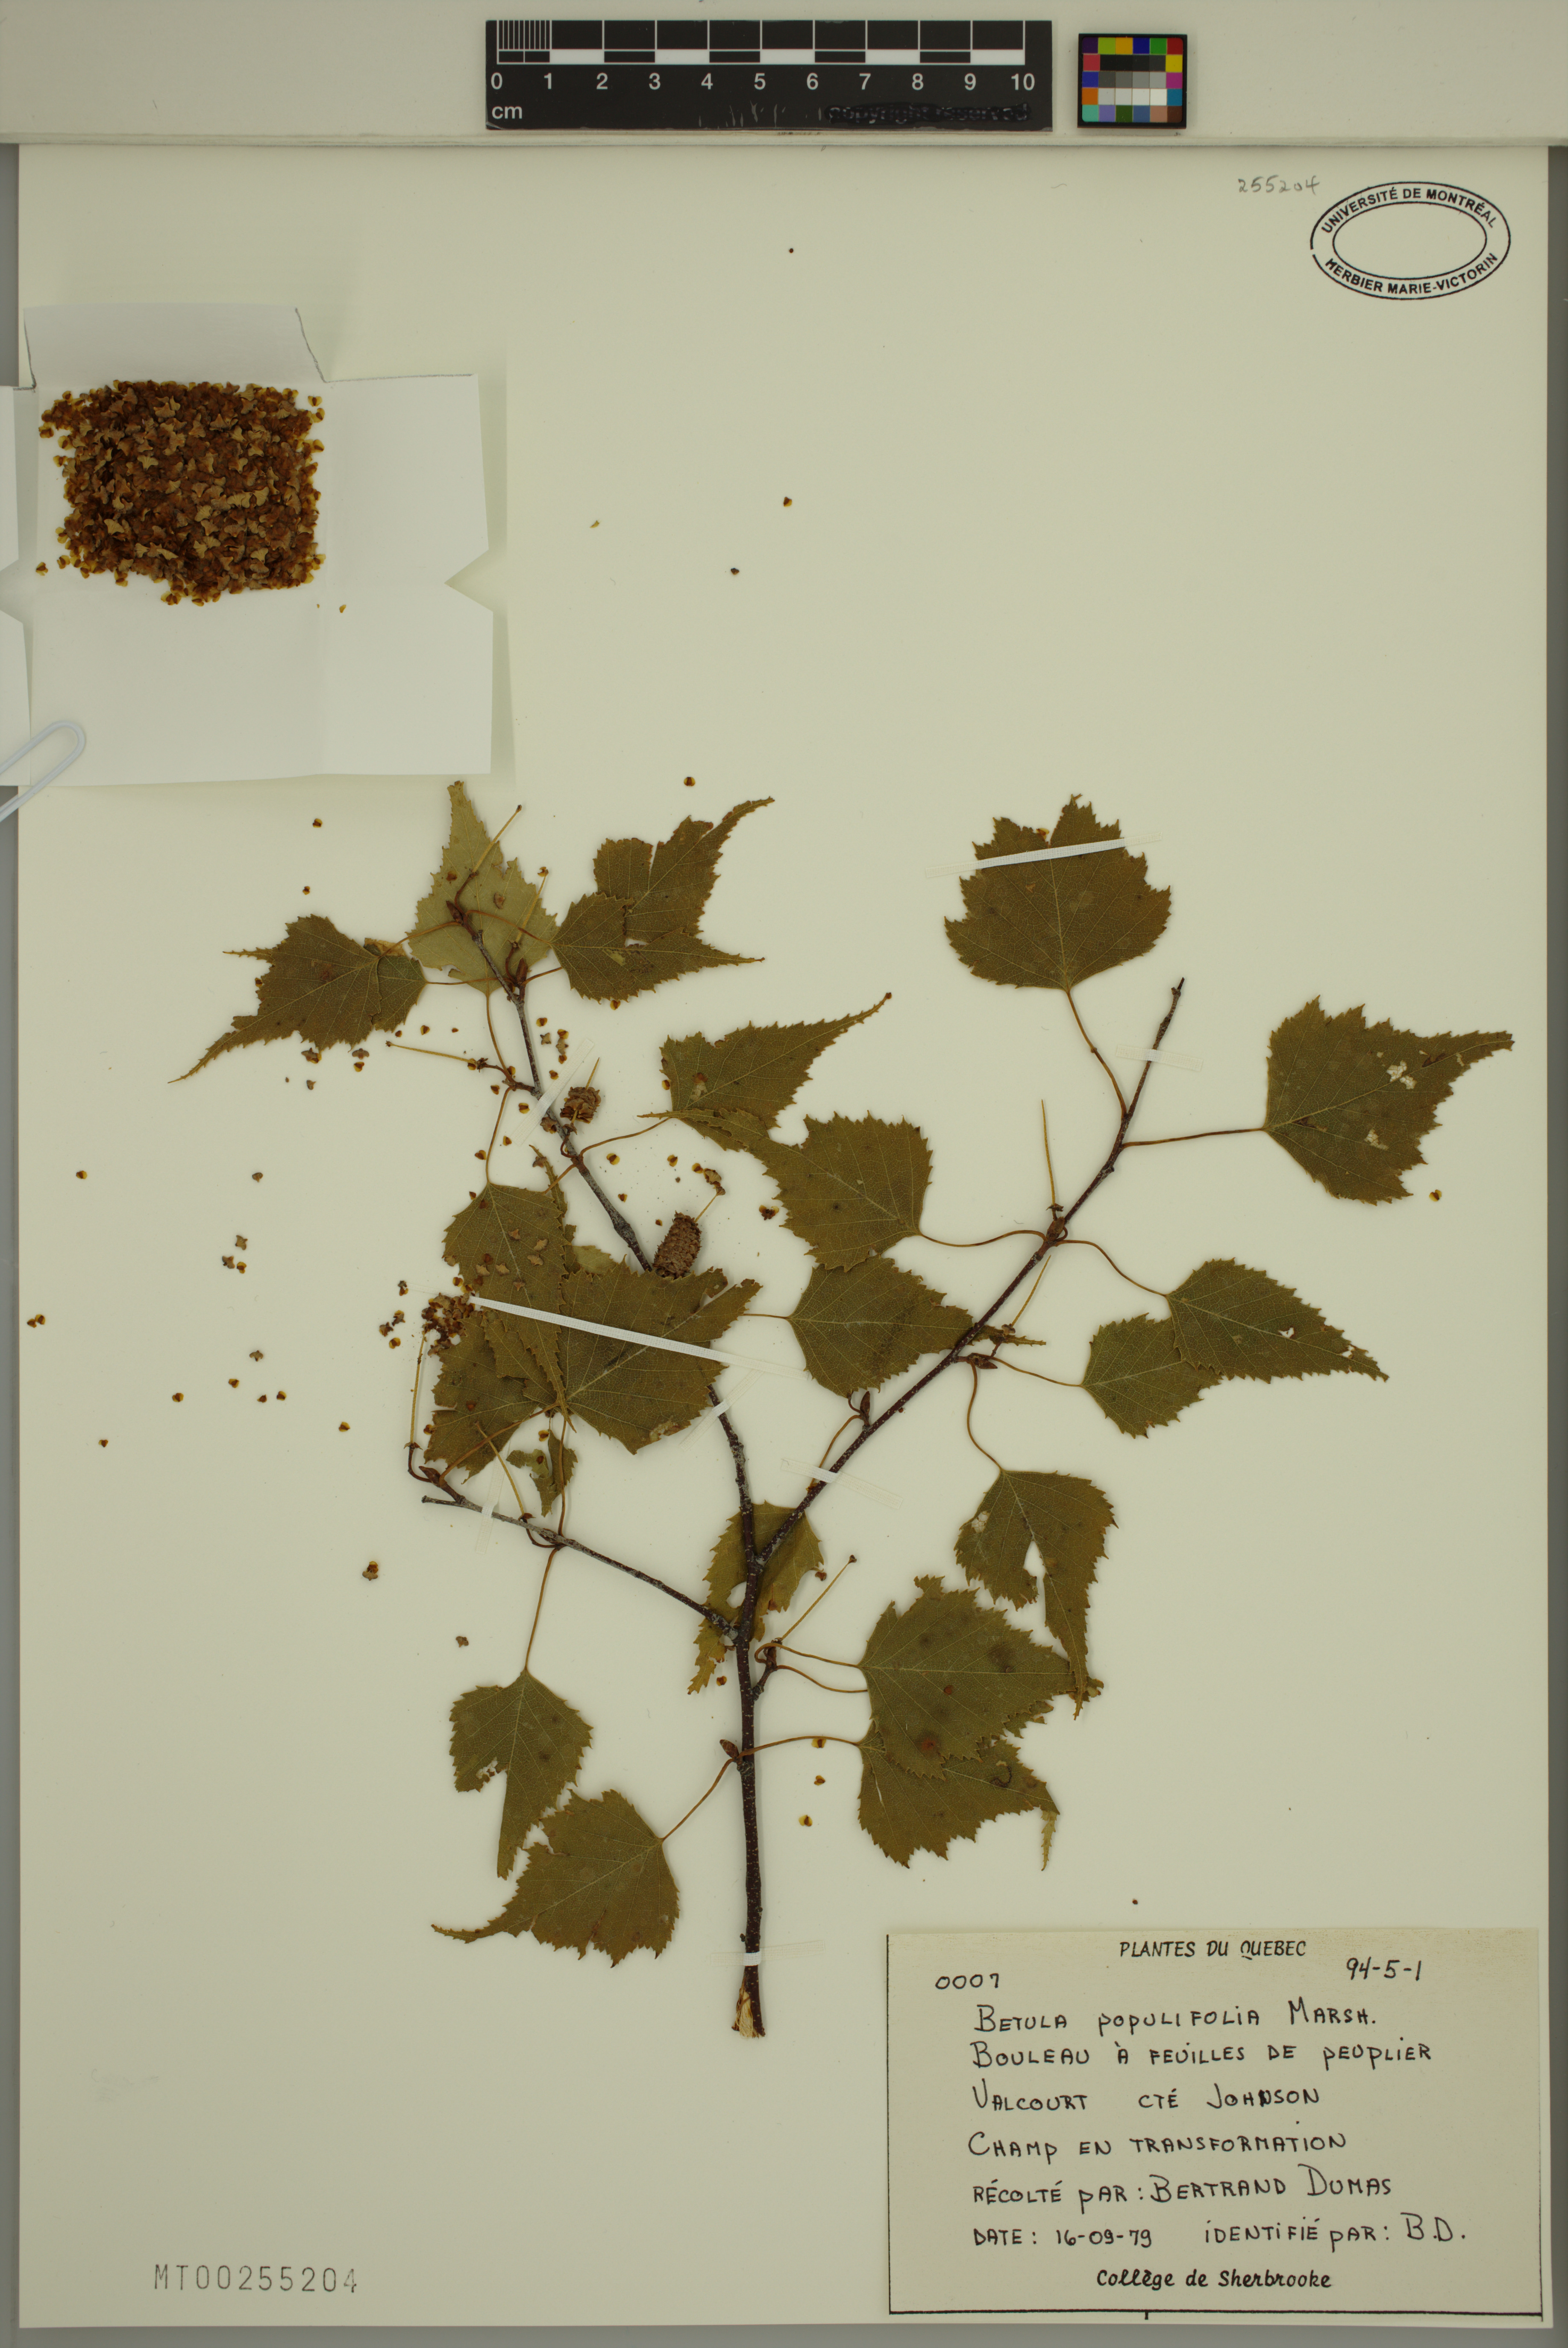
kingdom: Plantae
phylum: Tracheophyta
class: Magnoliopsida
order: Fagales
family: Betulaceae
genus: Betula
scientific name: Betula populifolia
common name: Fire birch
